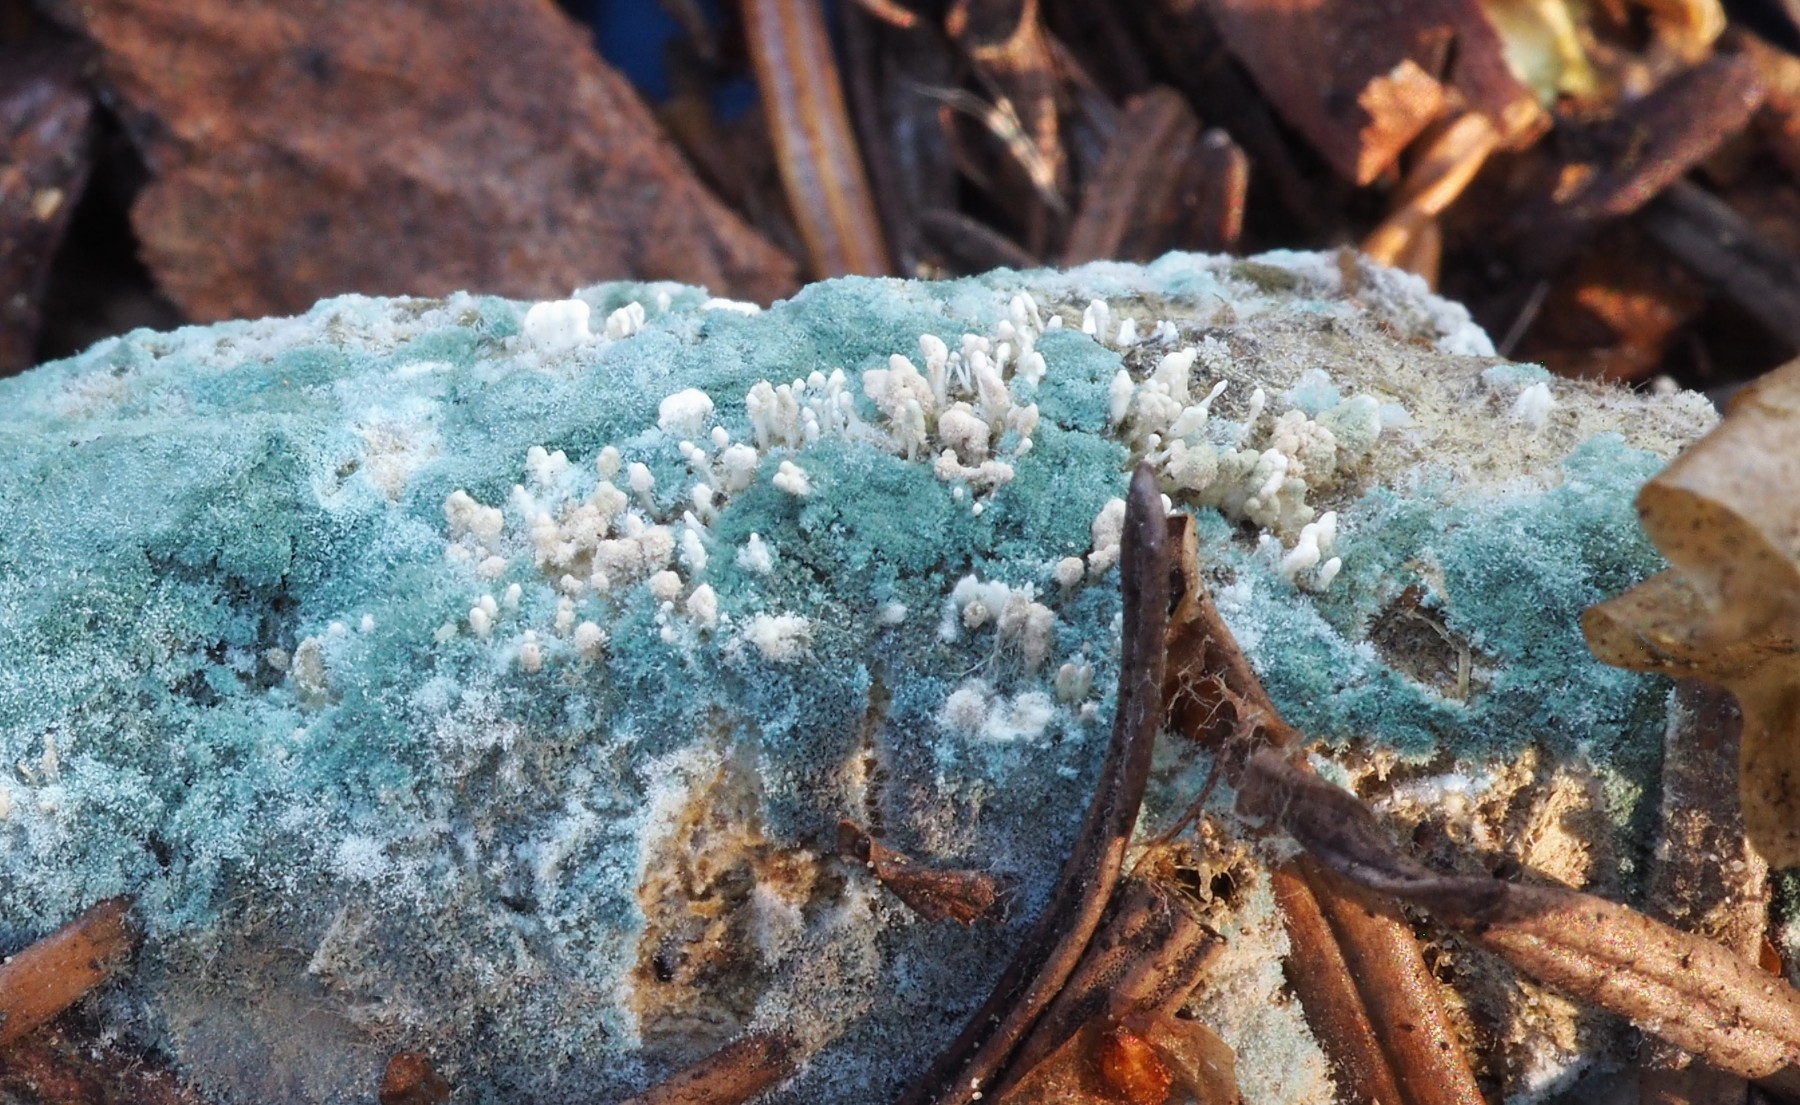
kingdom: Fungi
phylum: Ascomycota
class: Eurotiomycetes
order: Eurotiales
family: Aspergillaceae
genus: Penicillium
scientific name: Penicillium atramentosum
